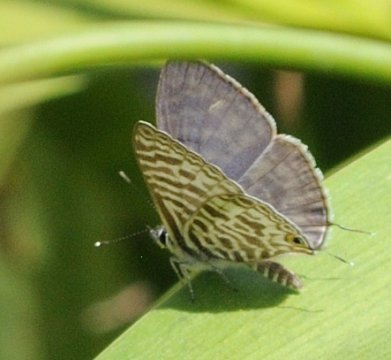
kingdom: Animalia
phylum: Arthropoda
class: Insecta
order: Lepidoptera
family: Lycaenidae
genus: Leptotes
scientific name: Leptotes pirithous
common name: Lang's Short-tailed Blue
